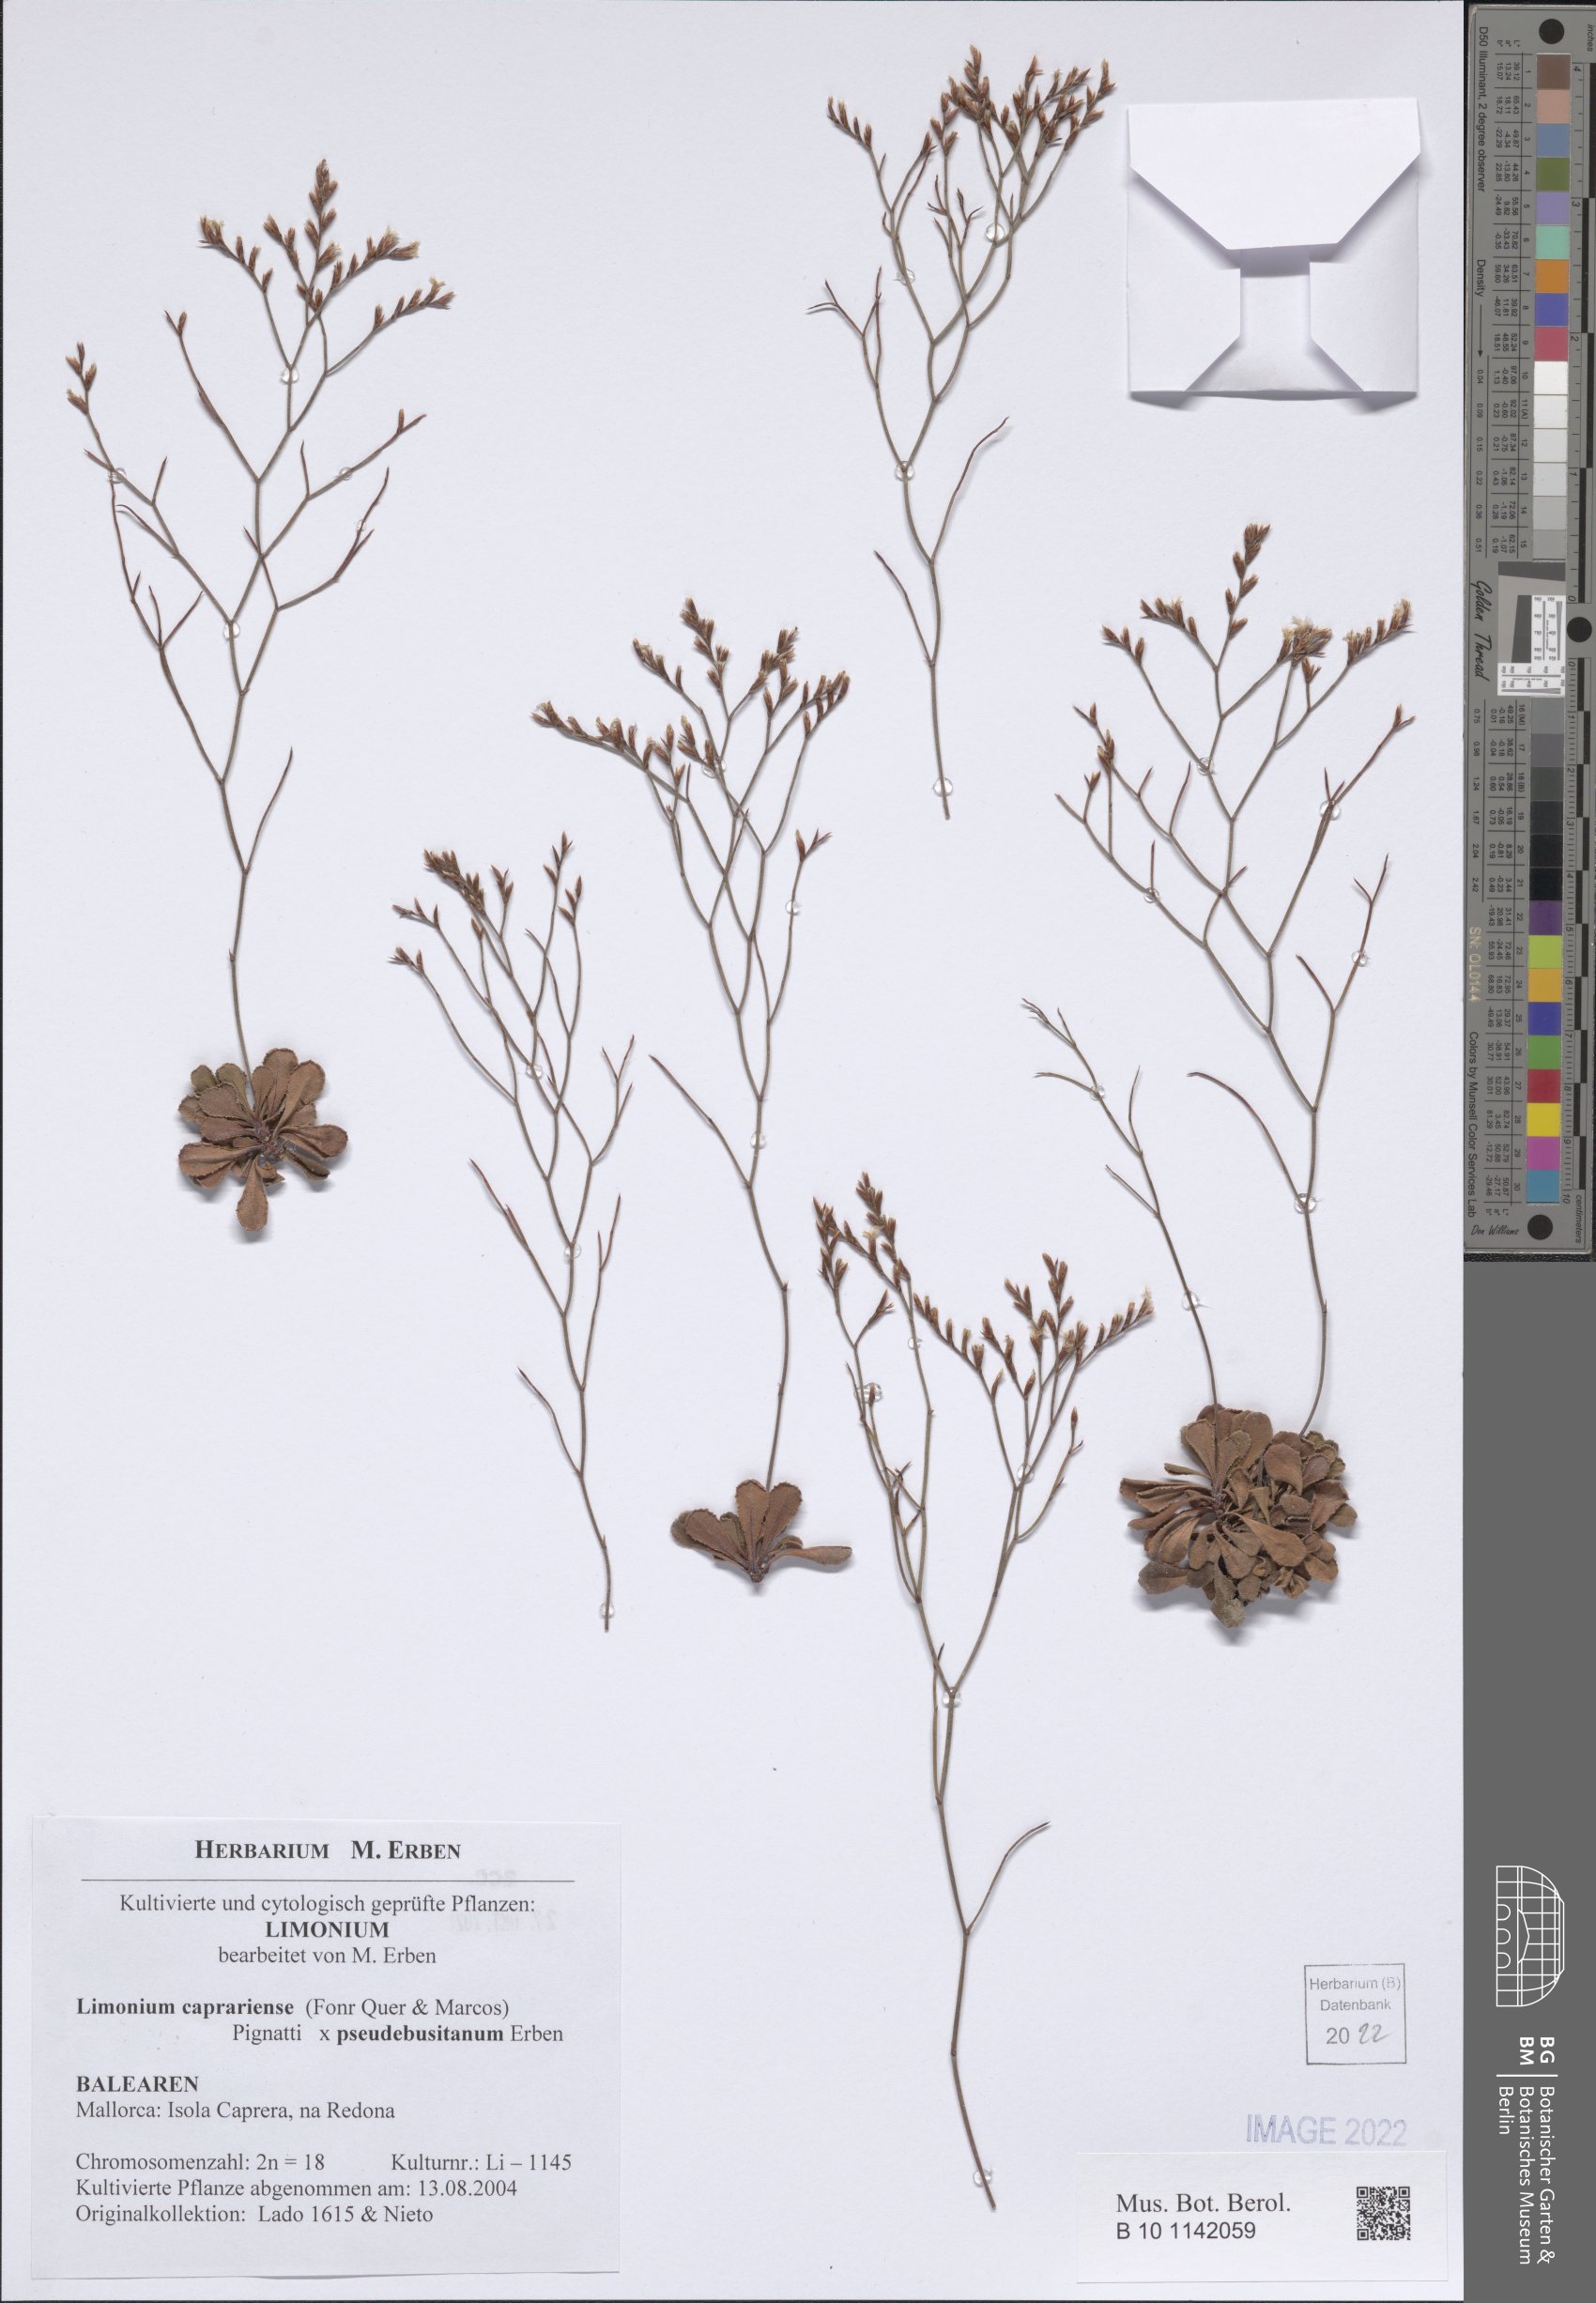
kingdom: Plantae
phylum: Tracheophyta
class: Magnoliopsida
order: Caryophyllales
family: Plumbaginaceae
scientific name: Plumbaginaceae
